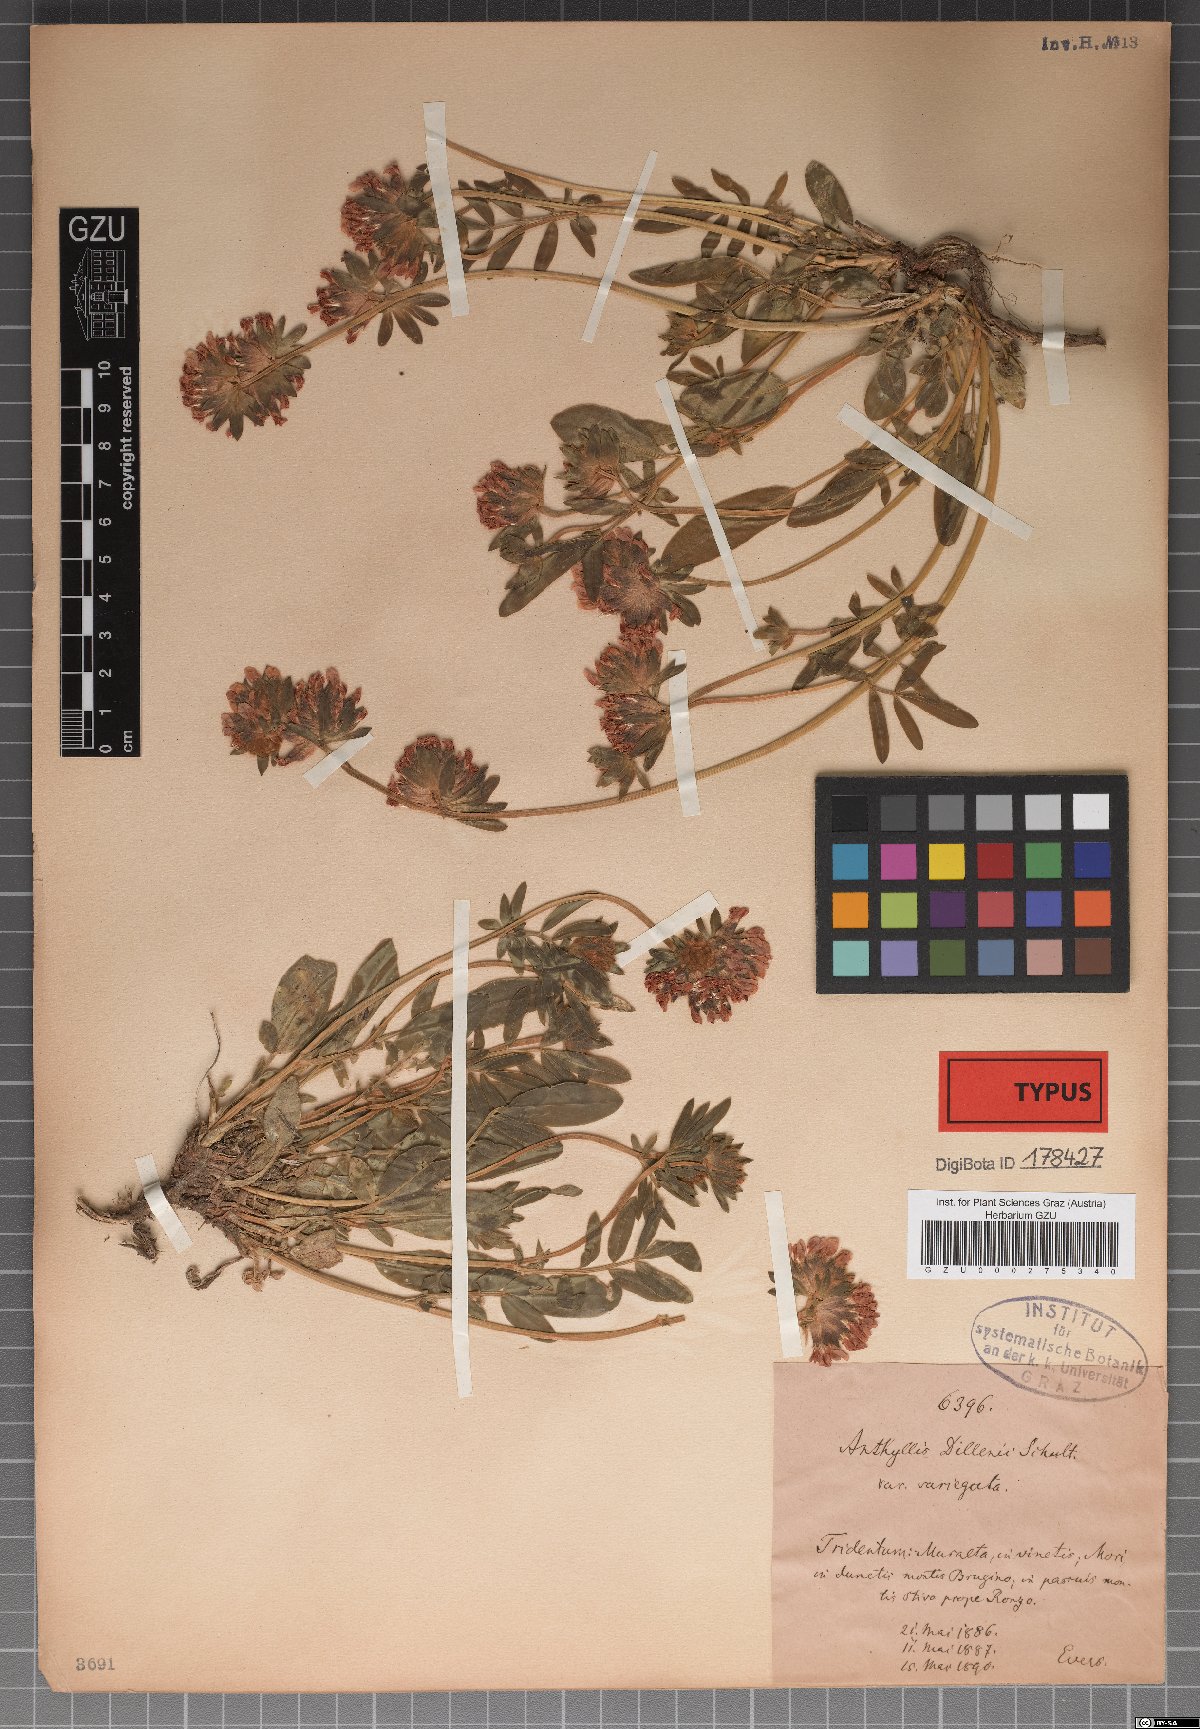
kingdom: Plantae
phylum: Tracheophyta
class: Magnoliopsida
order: Fabales
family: Fabaceae
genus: Anthyllis
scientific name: Anthyllis vulneraria
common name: Kidney vetch
